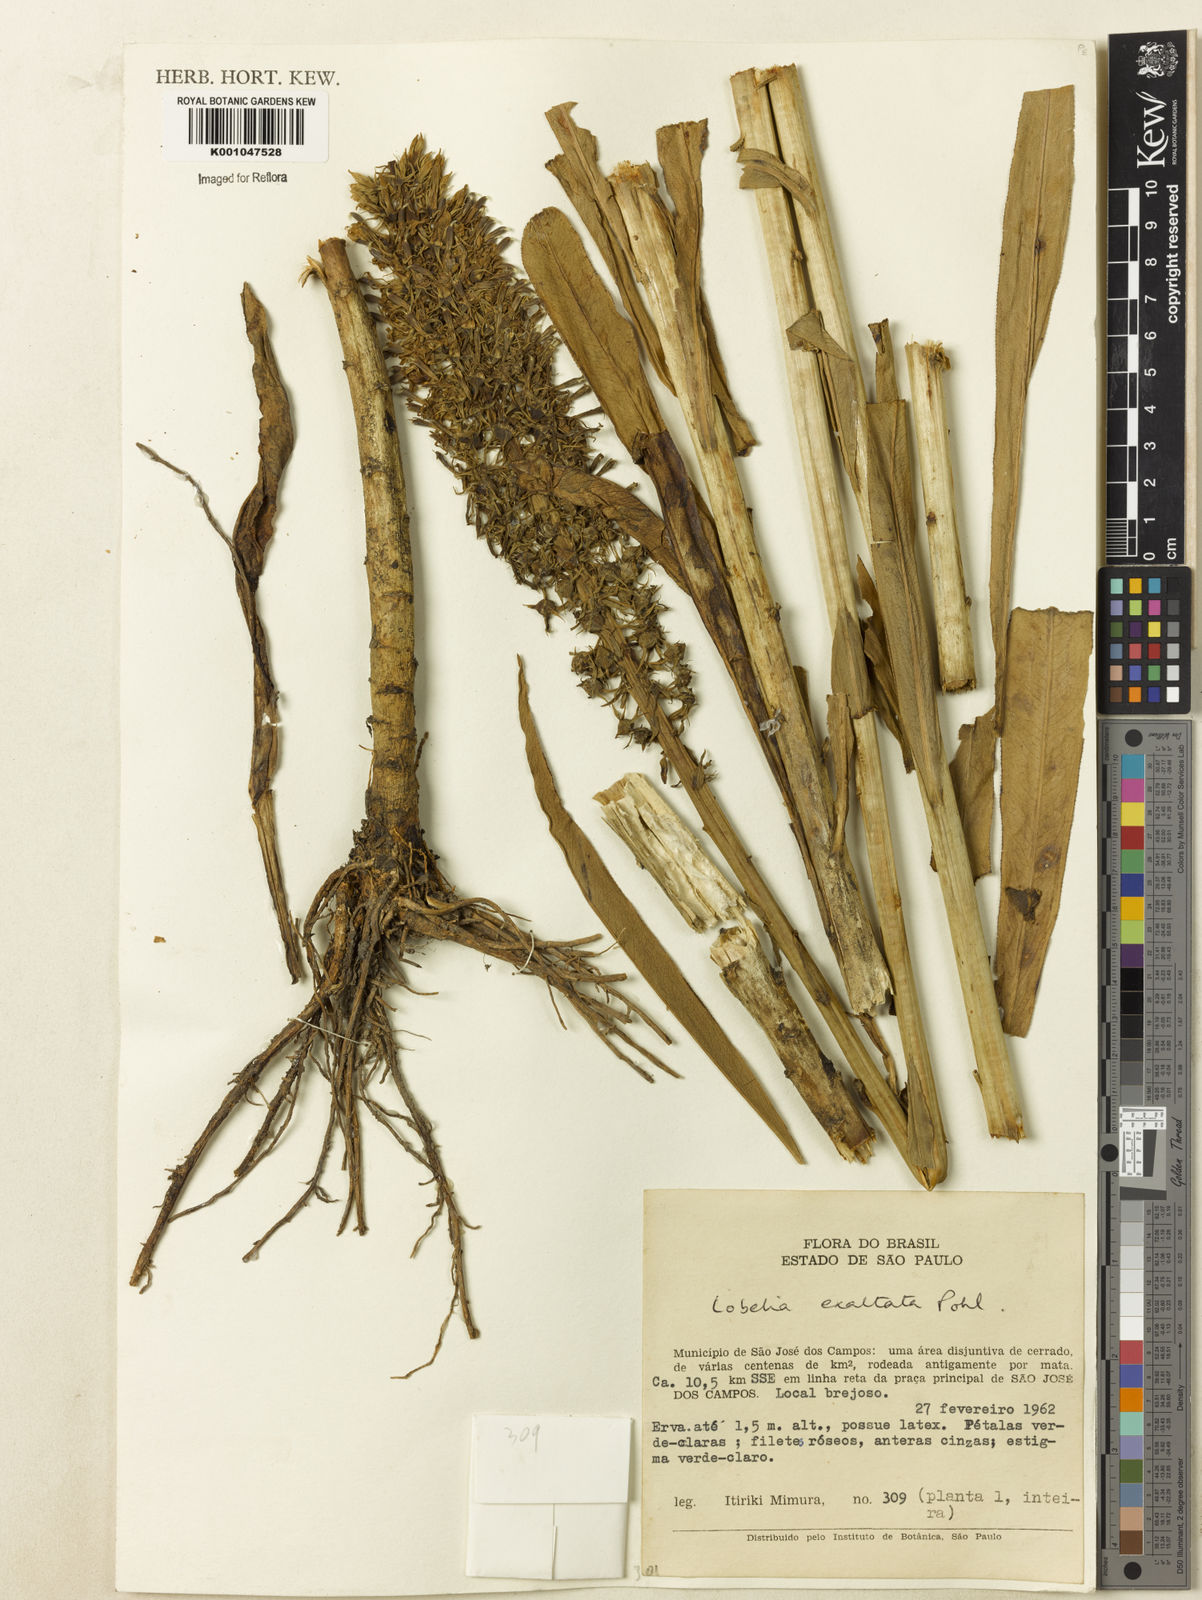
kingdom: Plantae
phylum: Tracheophyta
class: Magnoliopsida
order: Asterales
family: Campanulaceae
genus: Lobelia
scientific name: Lobelia exaltata
